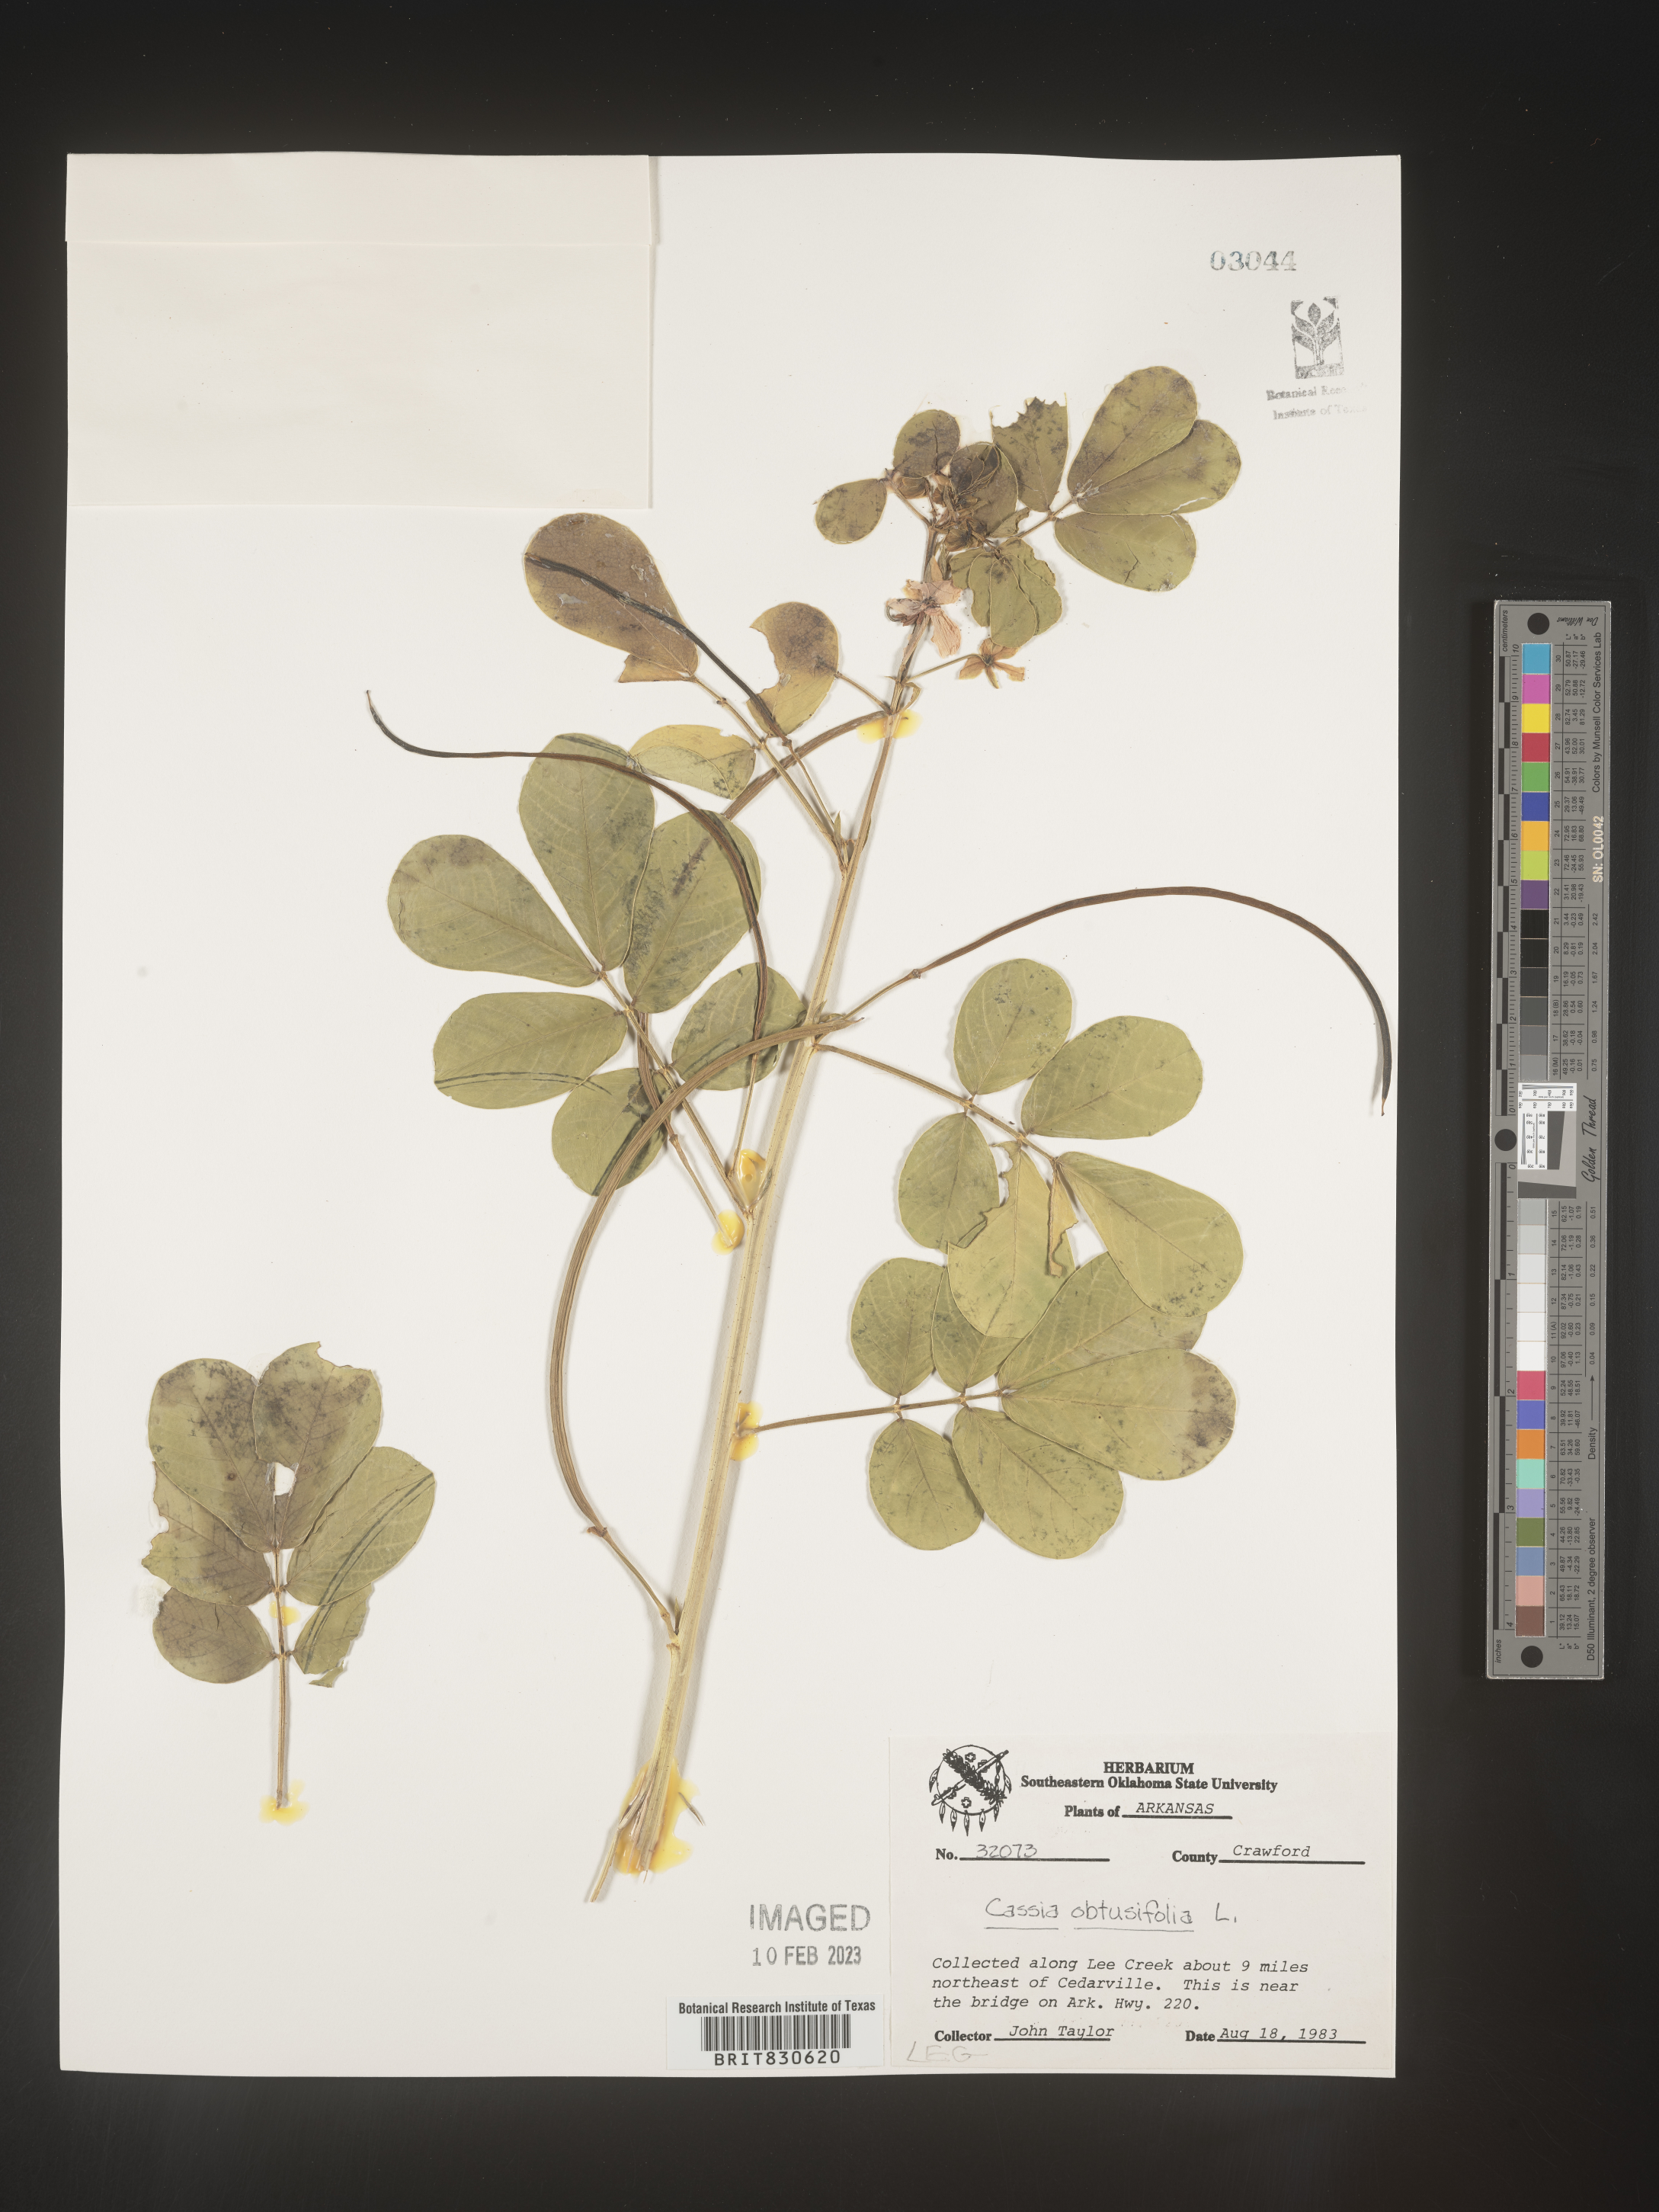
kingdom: Plantae
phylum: Tracheophyta
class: Magnoliopsida
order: Fabales
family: Fabaceae
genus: Senna
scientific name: Senna obtusifolia
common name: Java-bean
